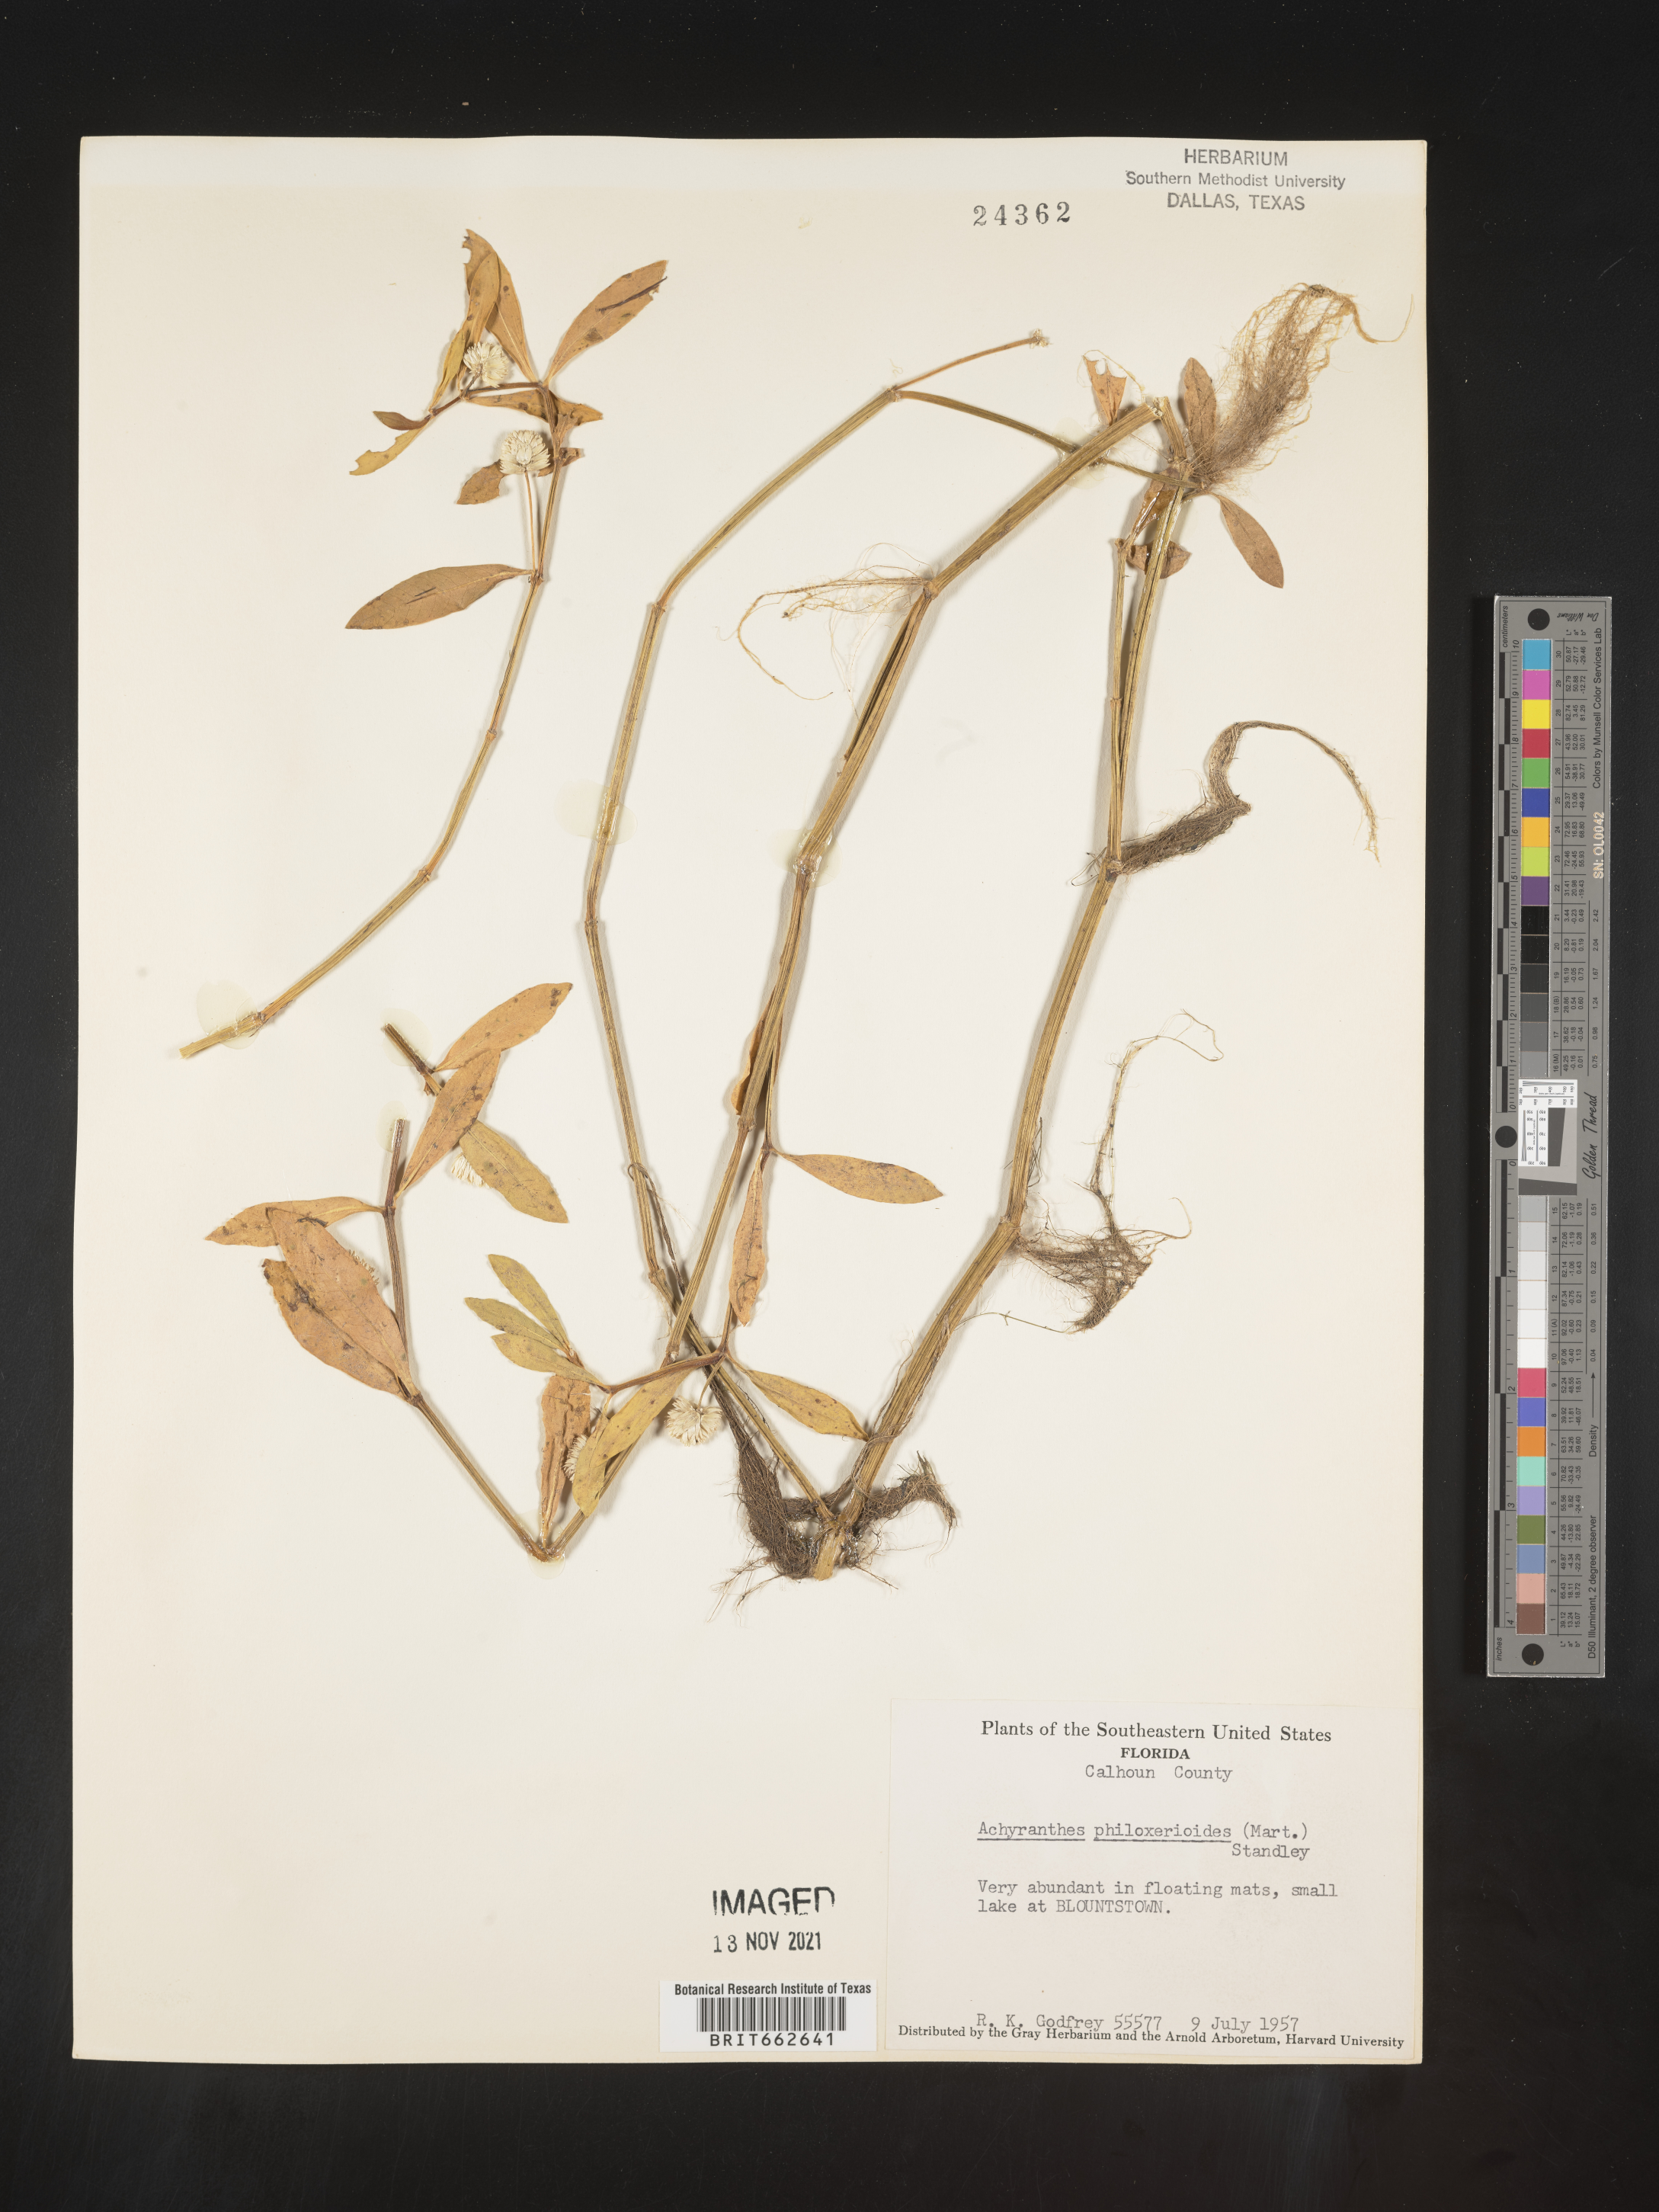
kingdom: Plantae
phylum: Tracheophyta
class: Magnoliopsida
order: Caryophyllales
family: Amaranthaceae
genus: Alternanthera
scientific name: Alternanthera philoxeroides
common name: Alligatorweed
